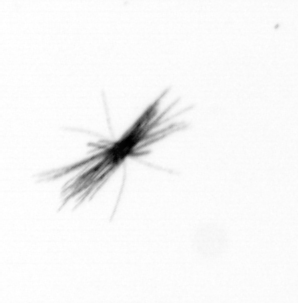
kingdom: Bacteria
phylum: Cyanobacteria
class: Cyanobacteriia
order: Cyanobacteriales
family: Microcoleaceae
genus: Trichodesmium
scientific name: Trichodesmium
